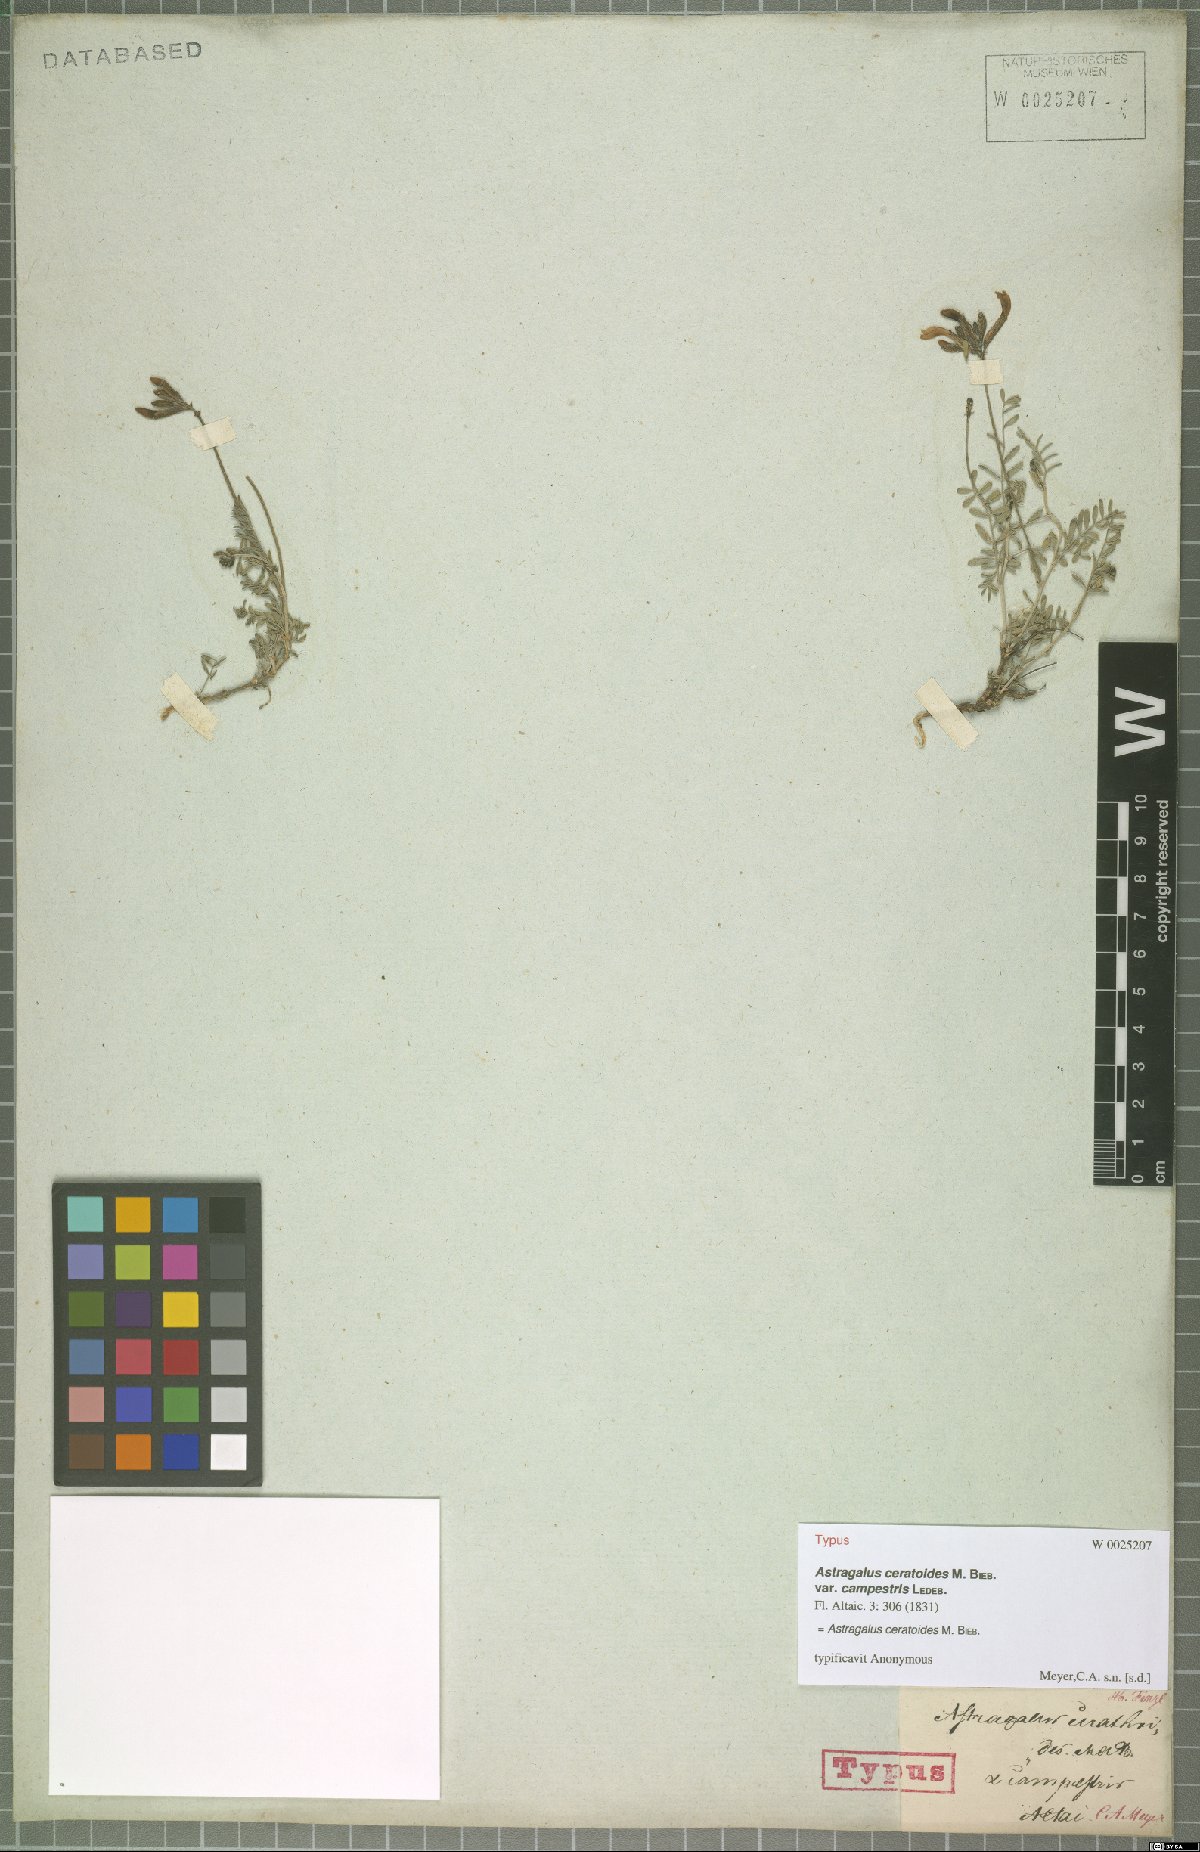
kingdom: Plantae
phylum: Tracheophyta
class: Magnoliopsida
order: Fabales
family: Fabaceae
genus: Astragalus
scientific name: Astragalus ceratoides
